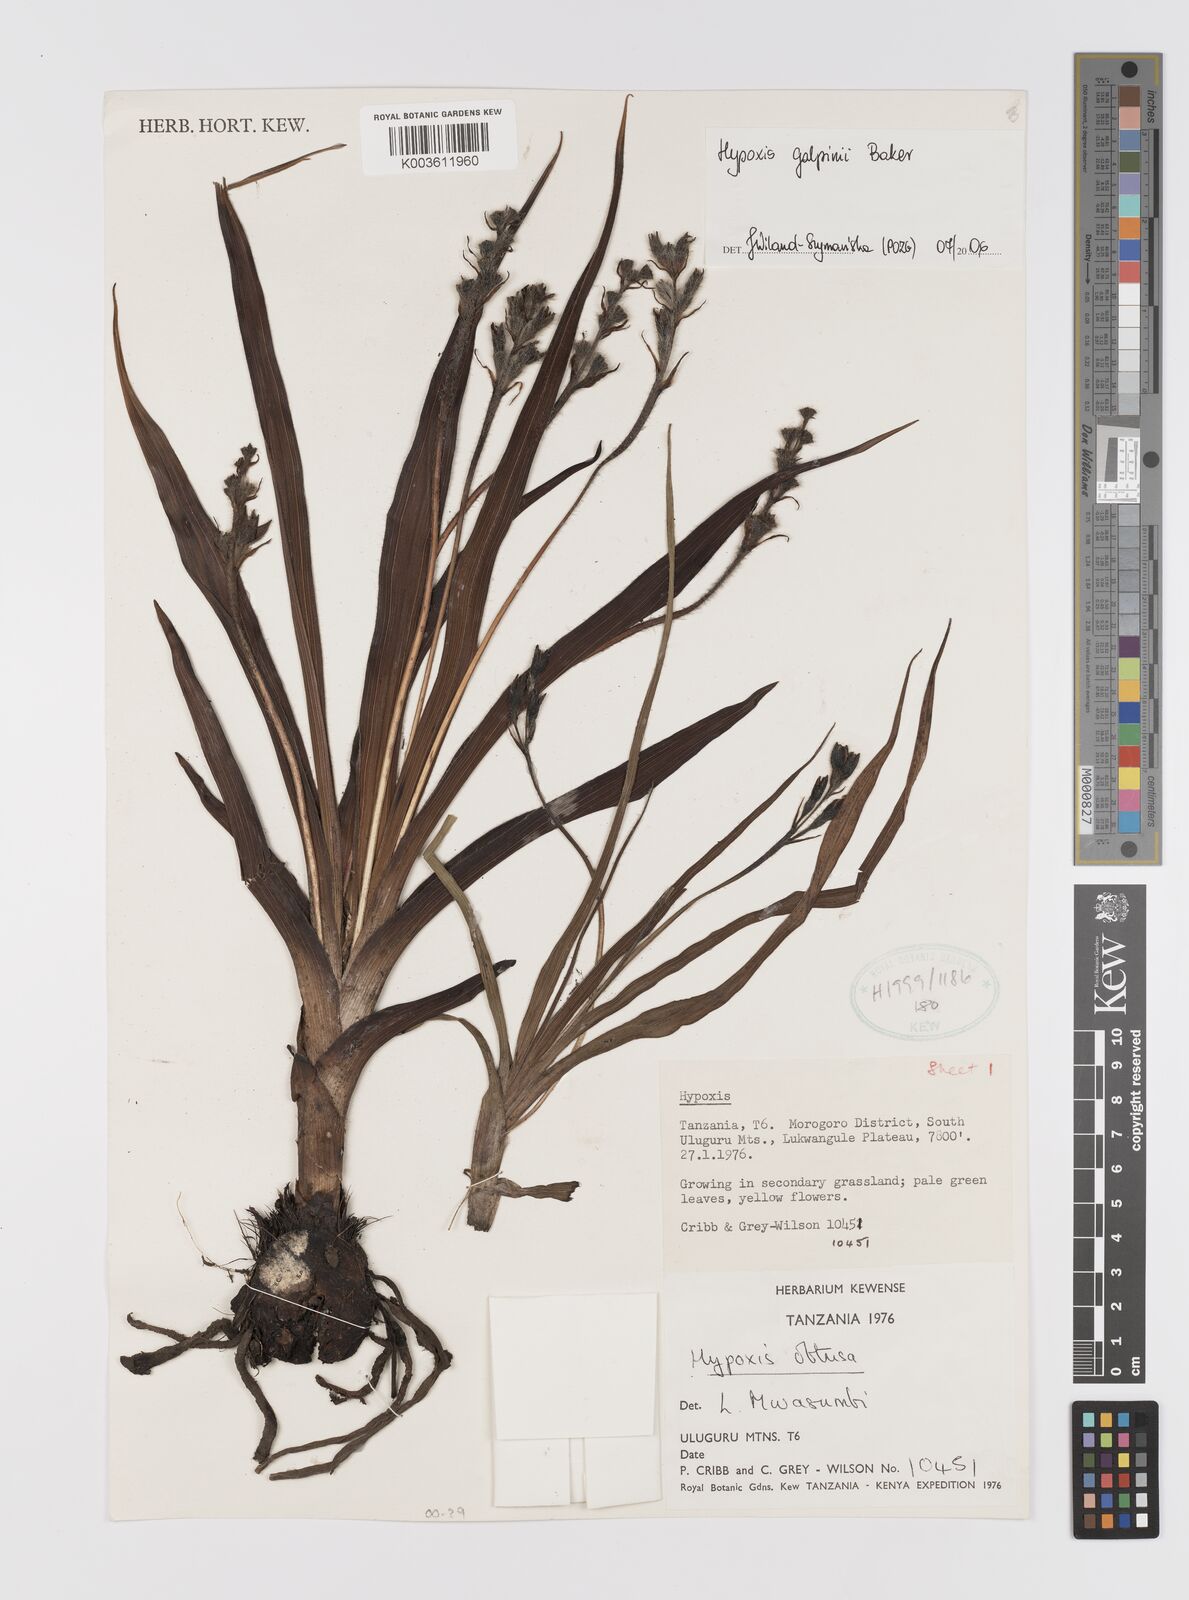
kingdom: Plantae
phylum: Tracheophyta
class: Liliopsida
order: Asparagales
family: Hypoxidaceae
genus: Hypoxis
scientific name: Hypoxis galpinii
